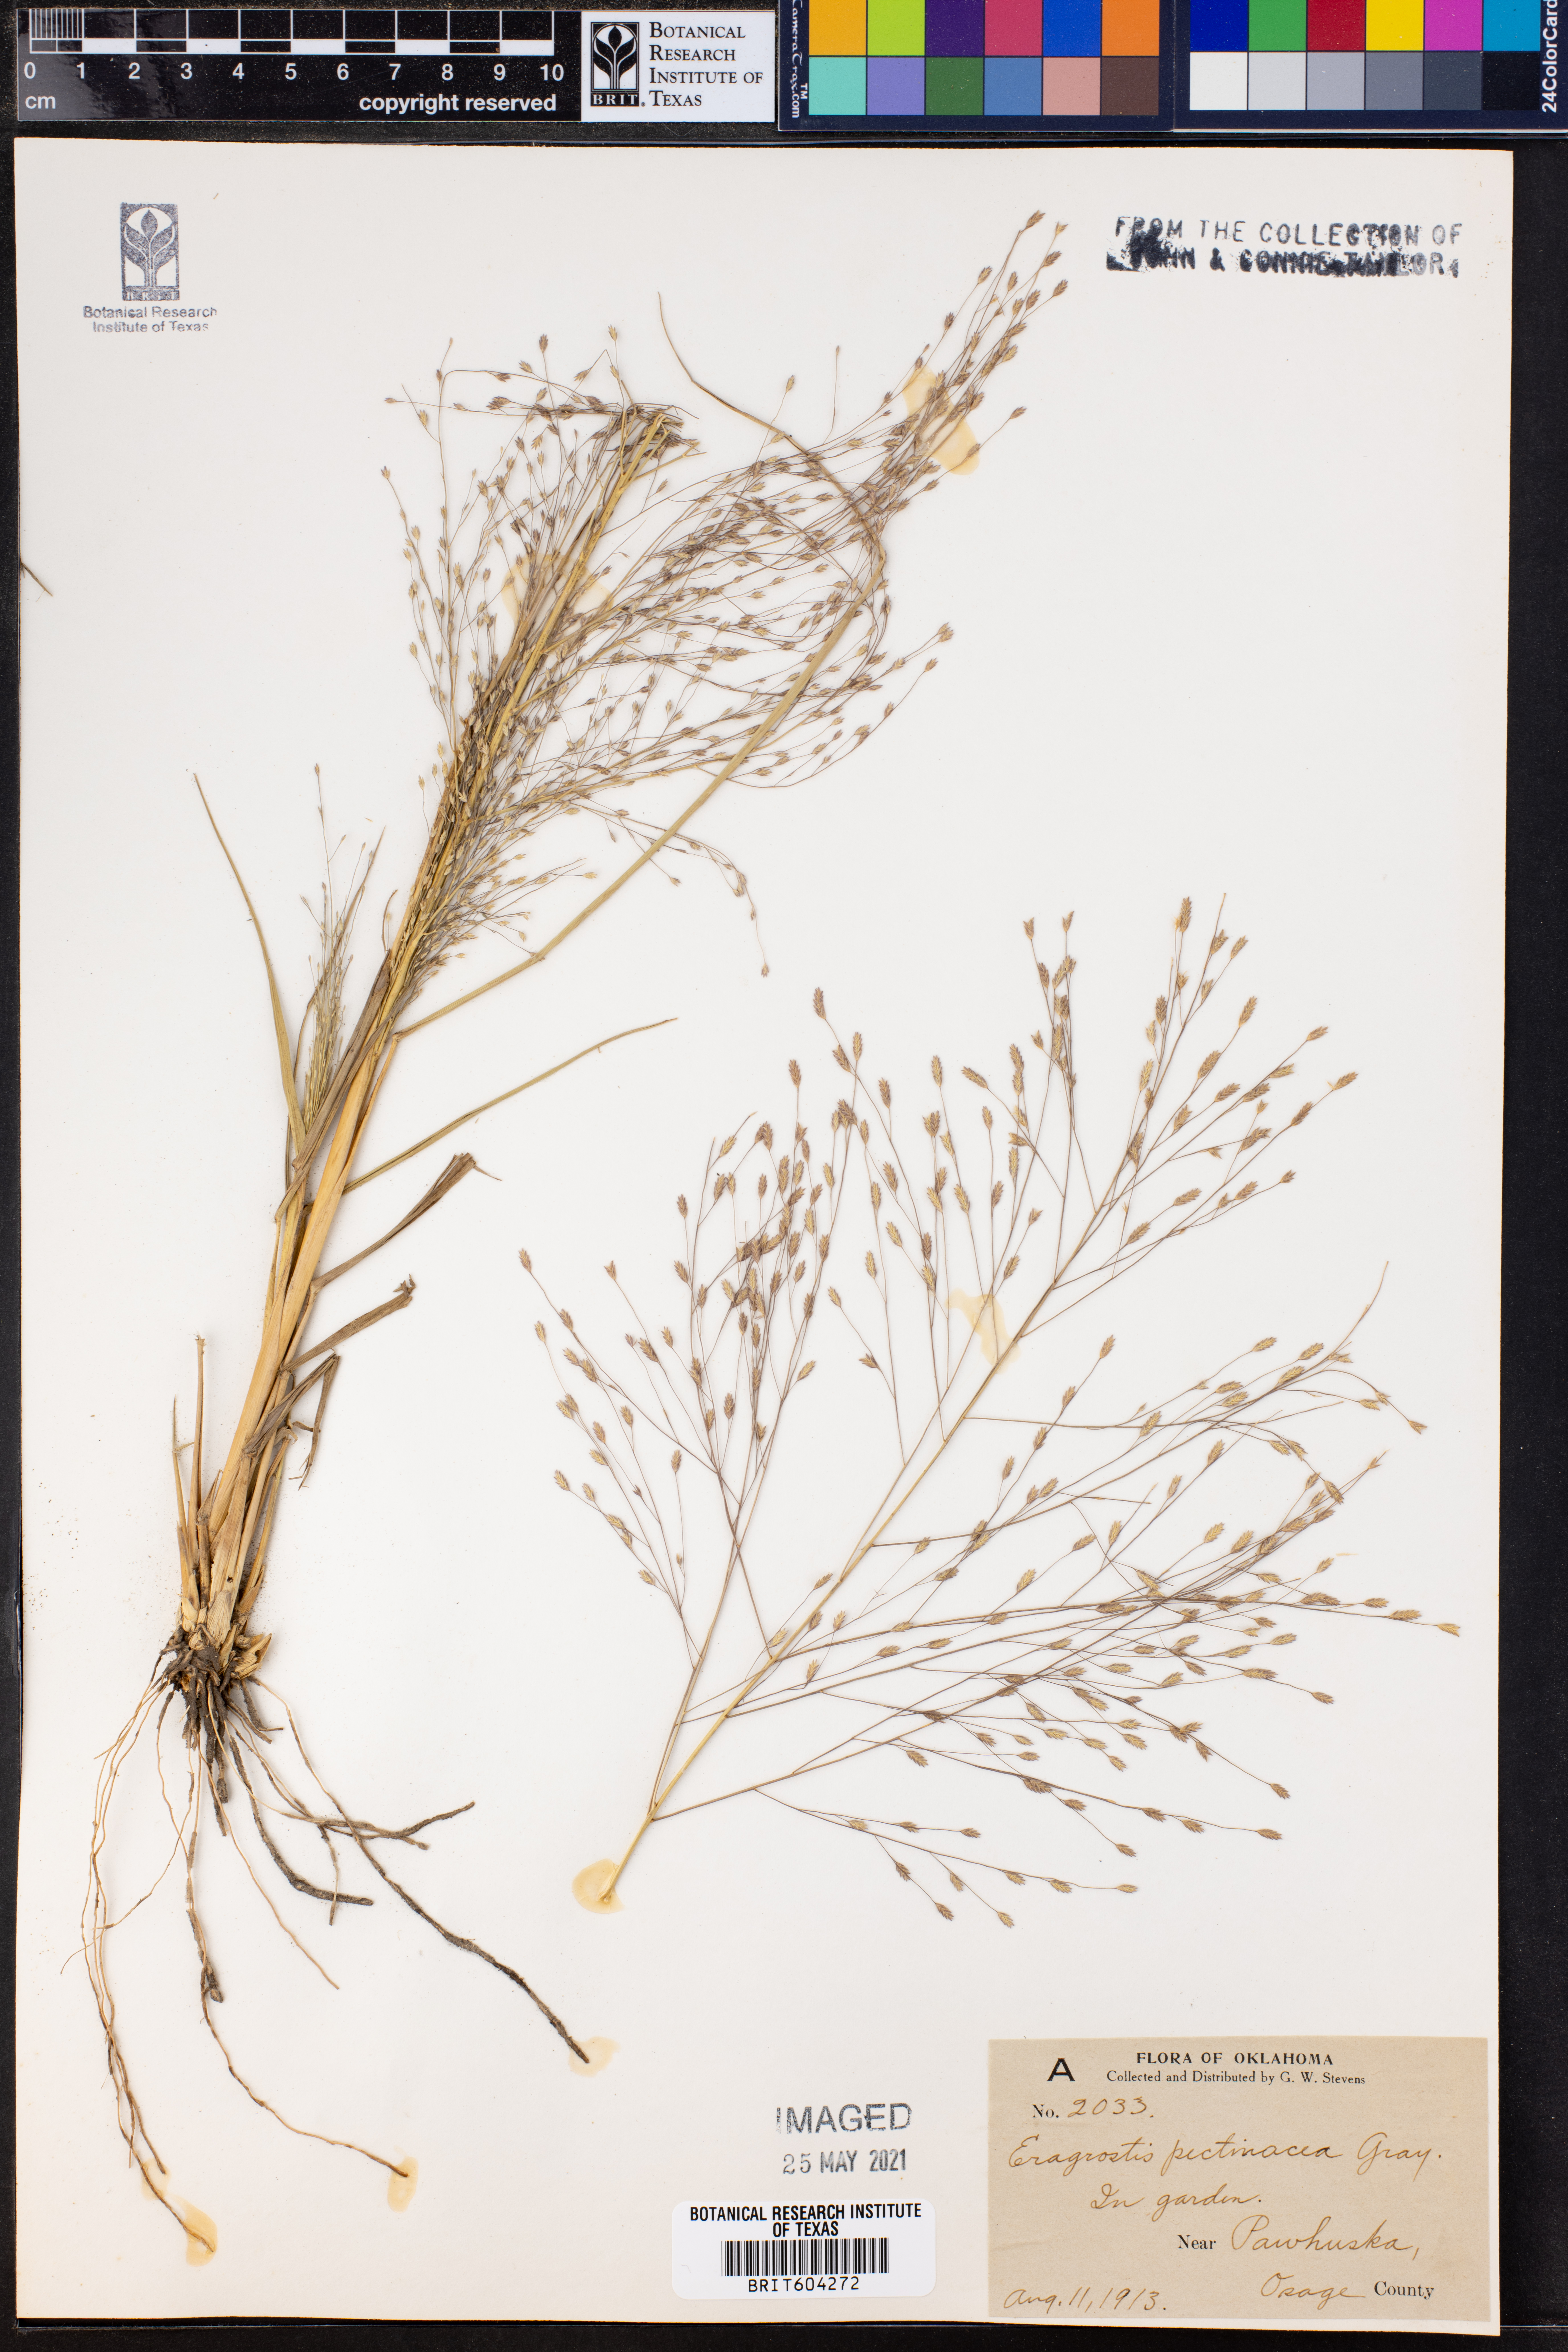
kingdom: Plantae
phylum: Tracheophyta
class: Liliopsida
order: Poales
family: Poaceae
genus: Eragrostis
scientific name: Eragrostis pectinacea
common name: Tufted lovegrass
